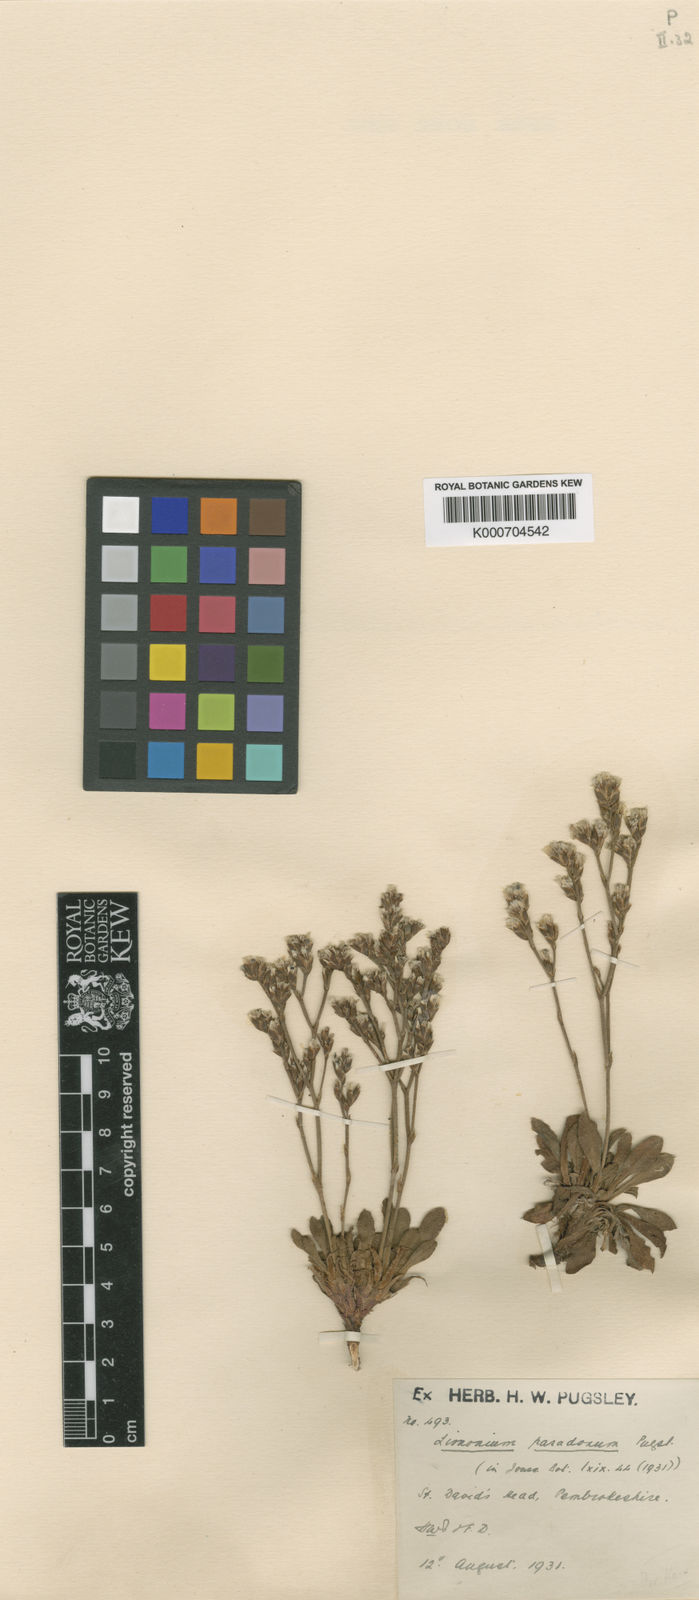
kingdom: Plantae
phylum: Tracheophyta
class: Magnoliopsida
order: Caryophyllales
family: Plumbaginaceae
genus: Limonium
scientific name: Limonium paradoxum
